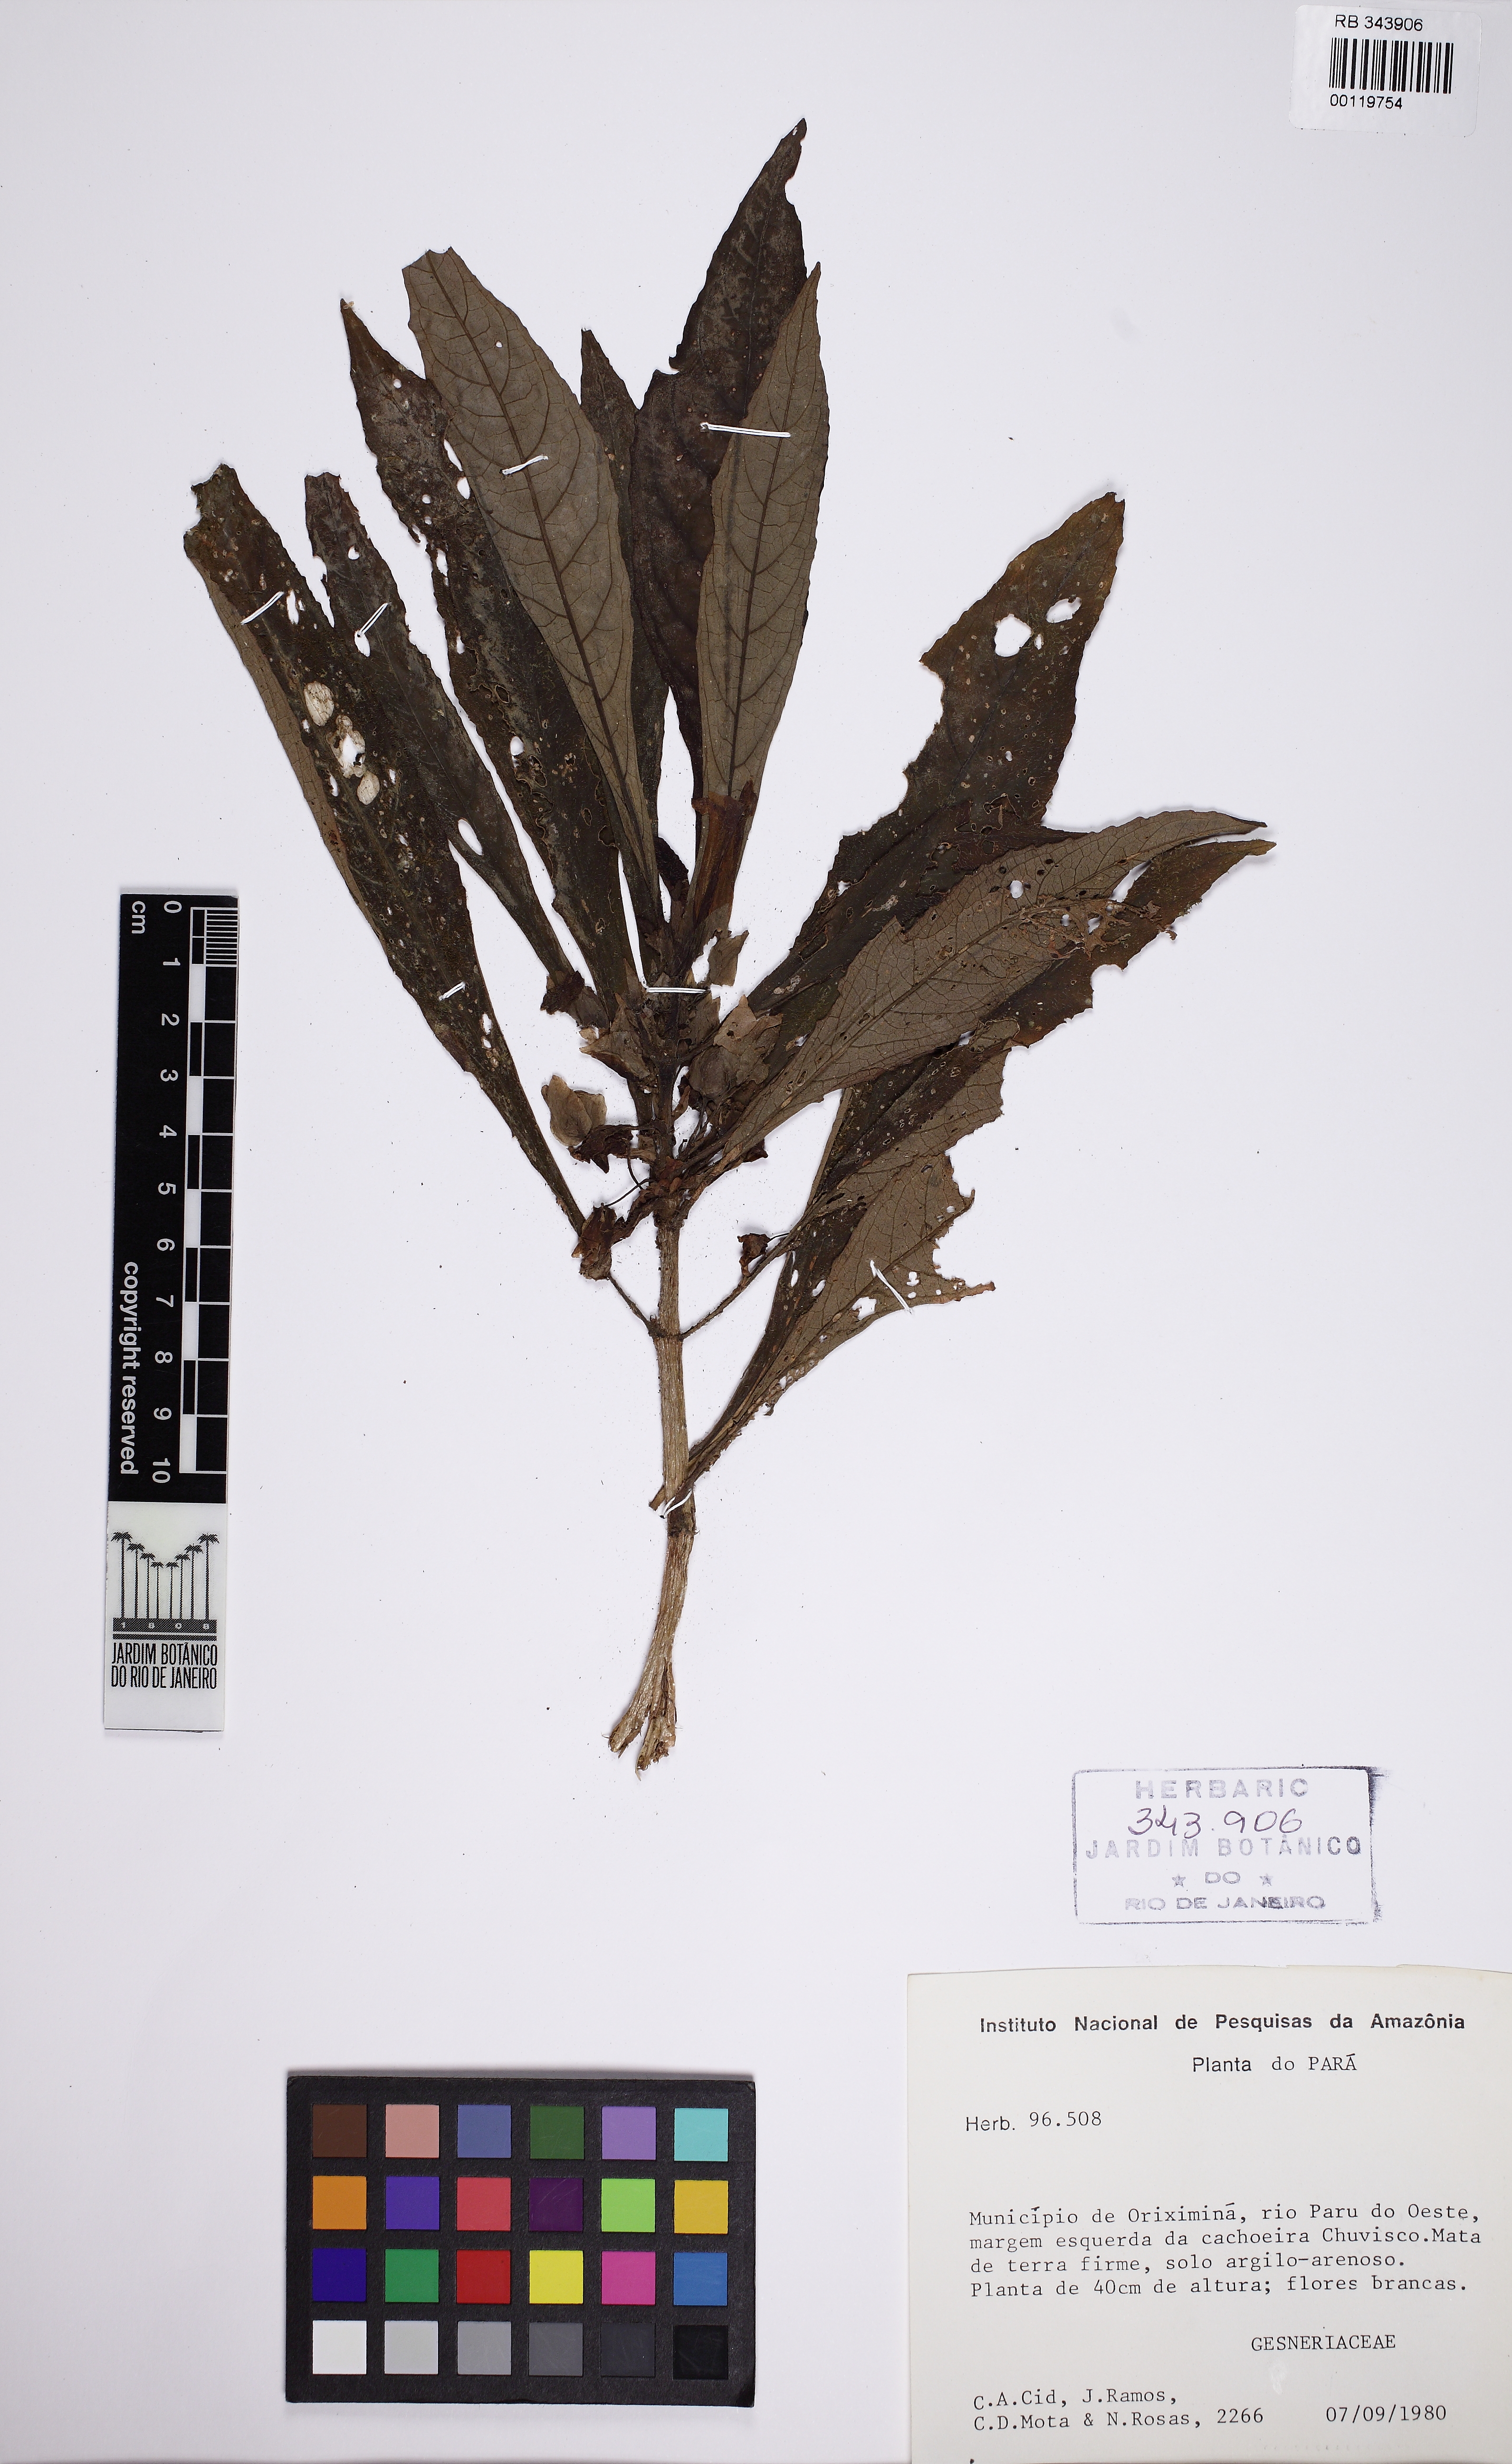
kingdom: Plantae
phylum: Tracheophyta
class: Magnoliopsida
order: Lamiales
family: Gesneriaceae
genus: Nautilocalyx
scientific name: Nautilocalyx
